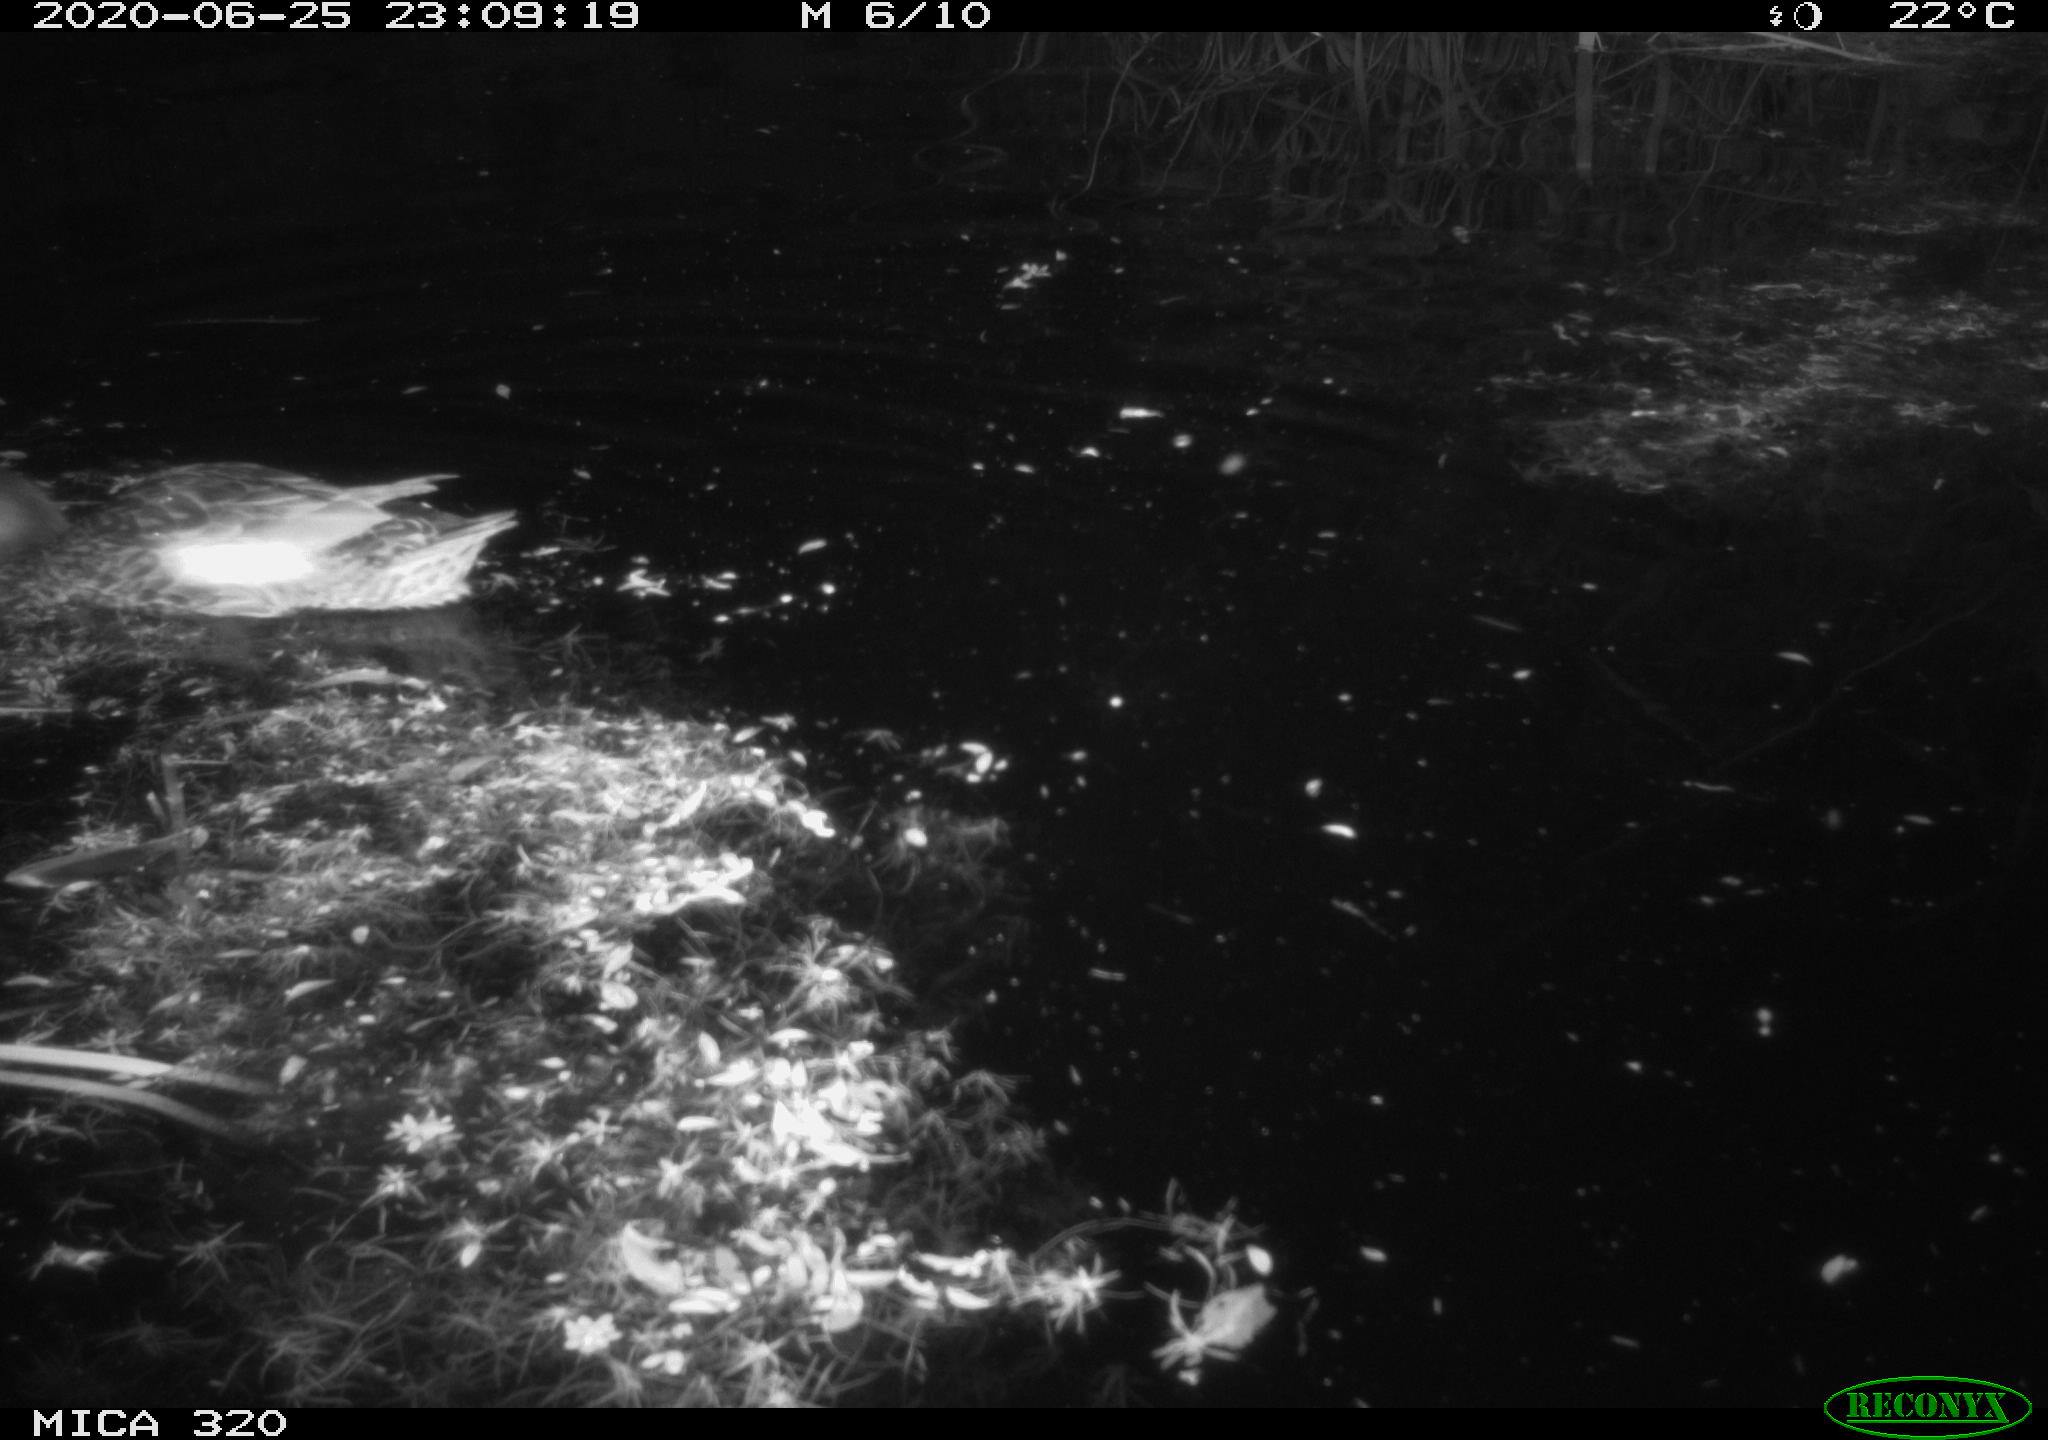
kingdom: Animalia
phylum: Chordata
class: Aves
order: Anseriformes
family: Anatidae
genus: Anas
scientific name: Anas platyrhynchos
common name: Mallard
